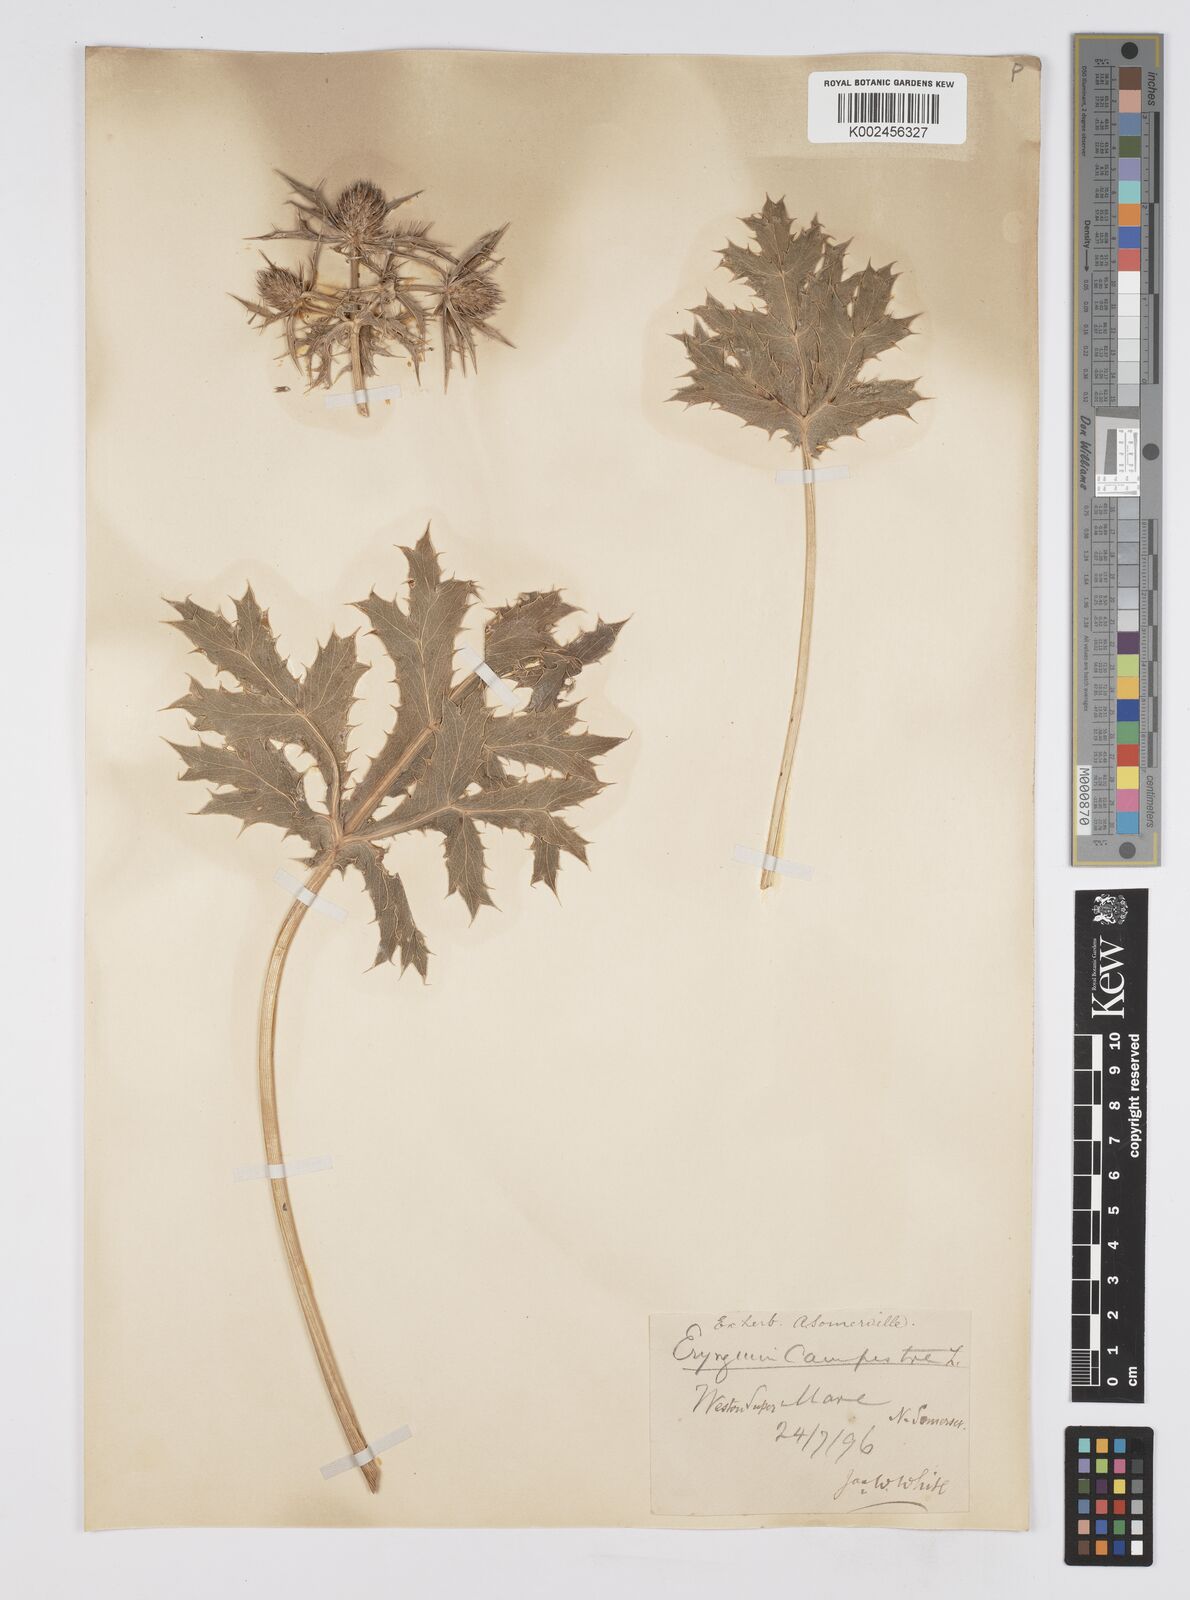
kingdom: Plantae
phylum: Tracheophyta
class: Magnoliopsida
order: Apiales
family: Apiaceae
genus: Eryngium
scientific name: Eryngium campestre
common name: Field eryngo
